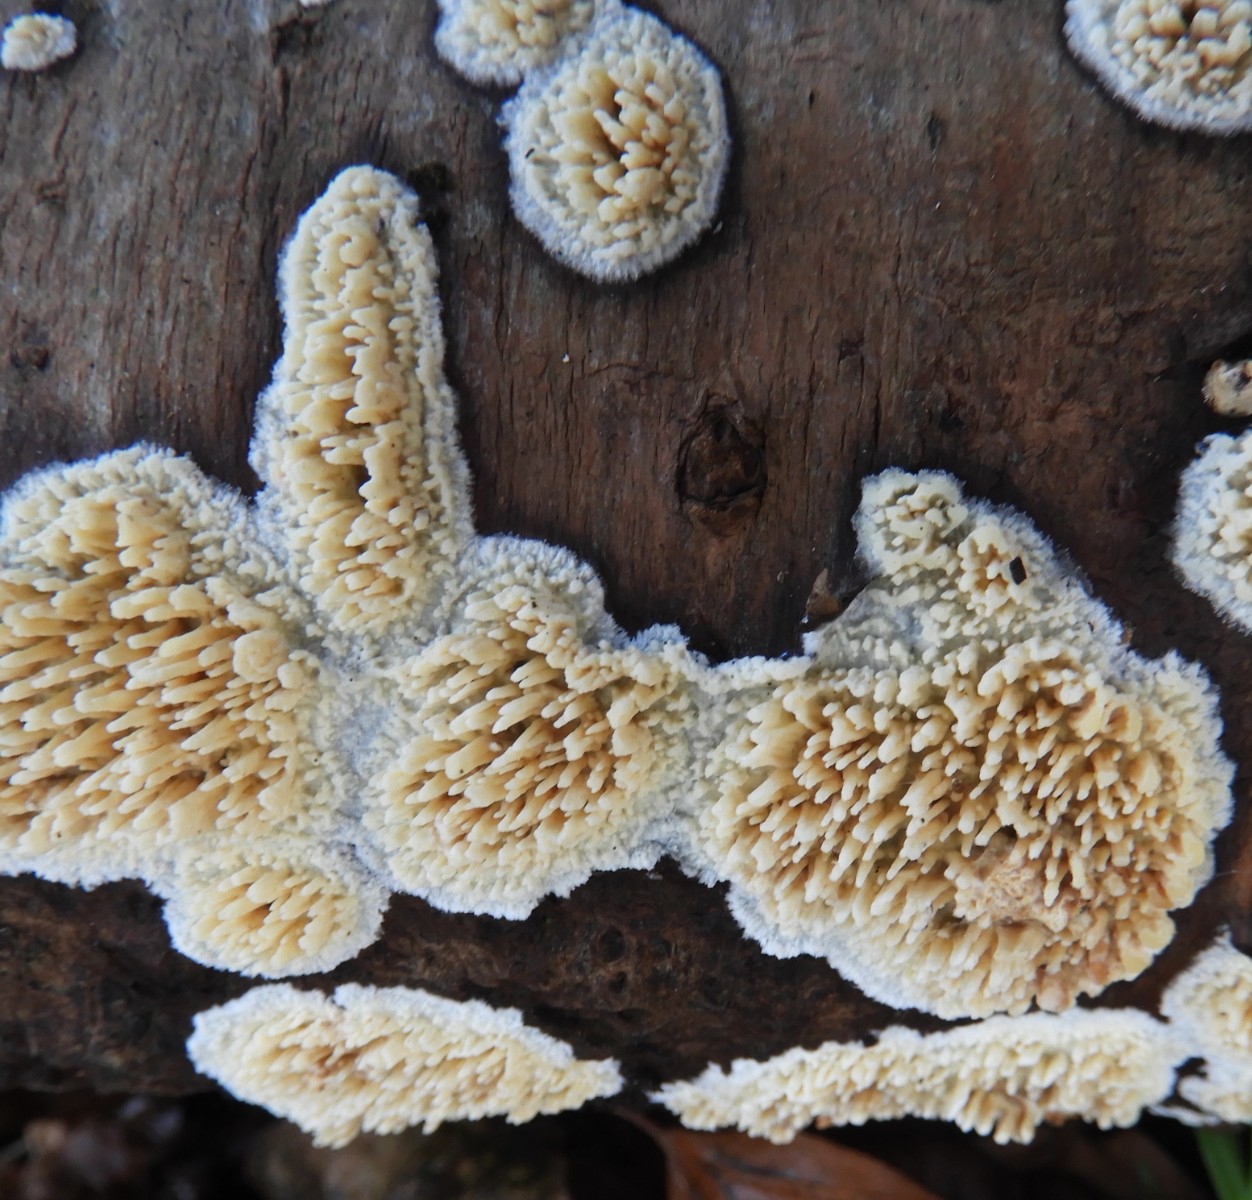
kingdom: Fungi
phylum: Basidiomycota
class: Agaricomycetes
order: Hymenochaetales
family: Schizoporaceae
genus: Xylodon
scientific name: Xylodon radula
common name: grovtandet kalkskind
